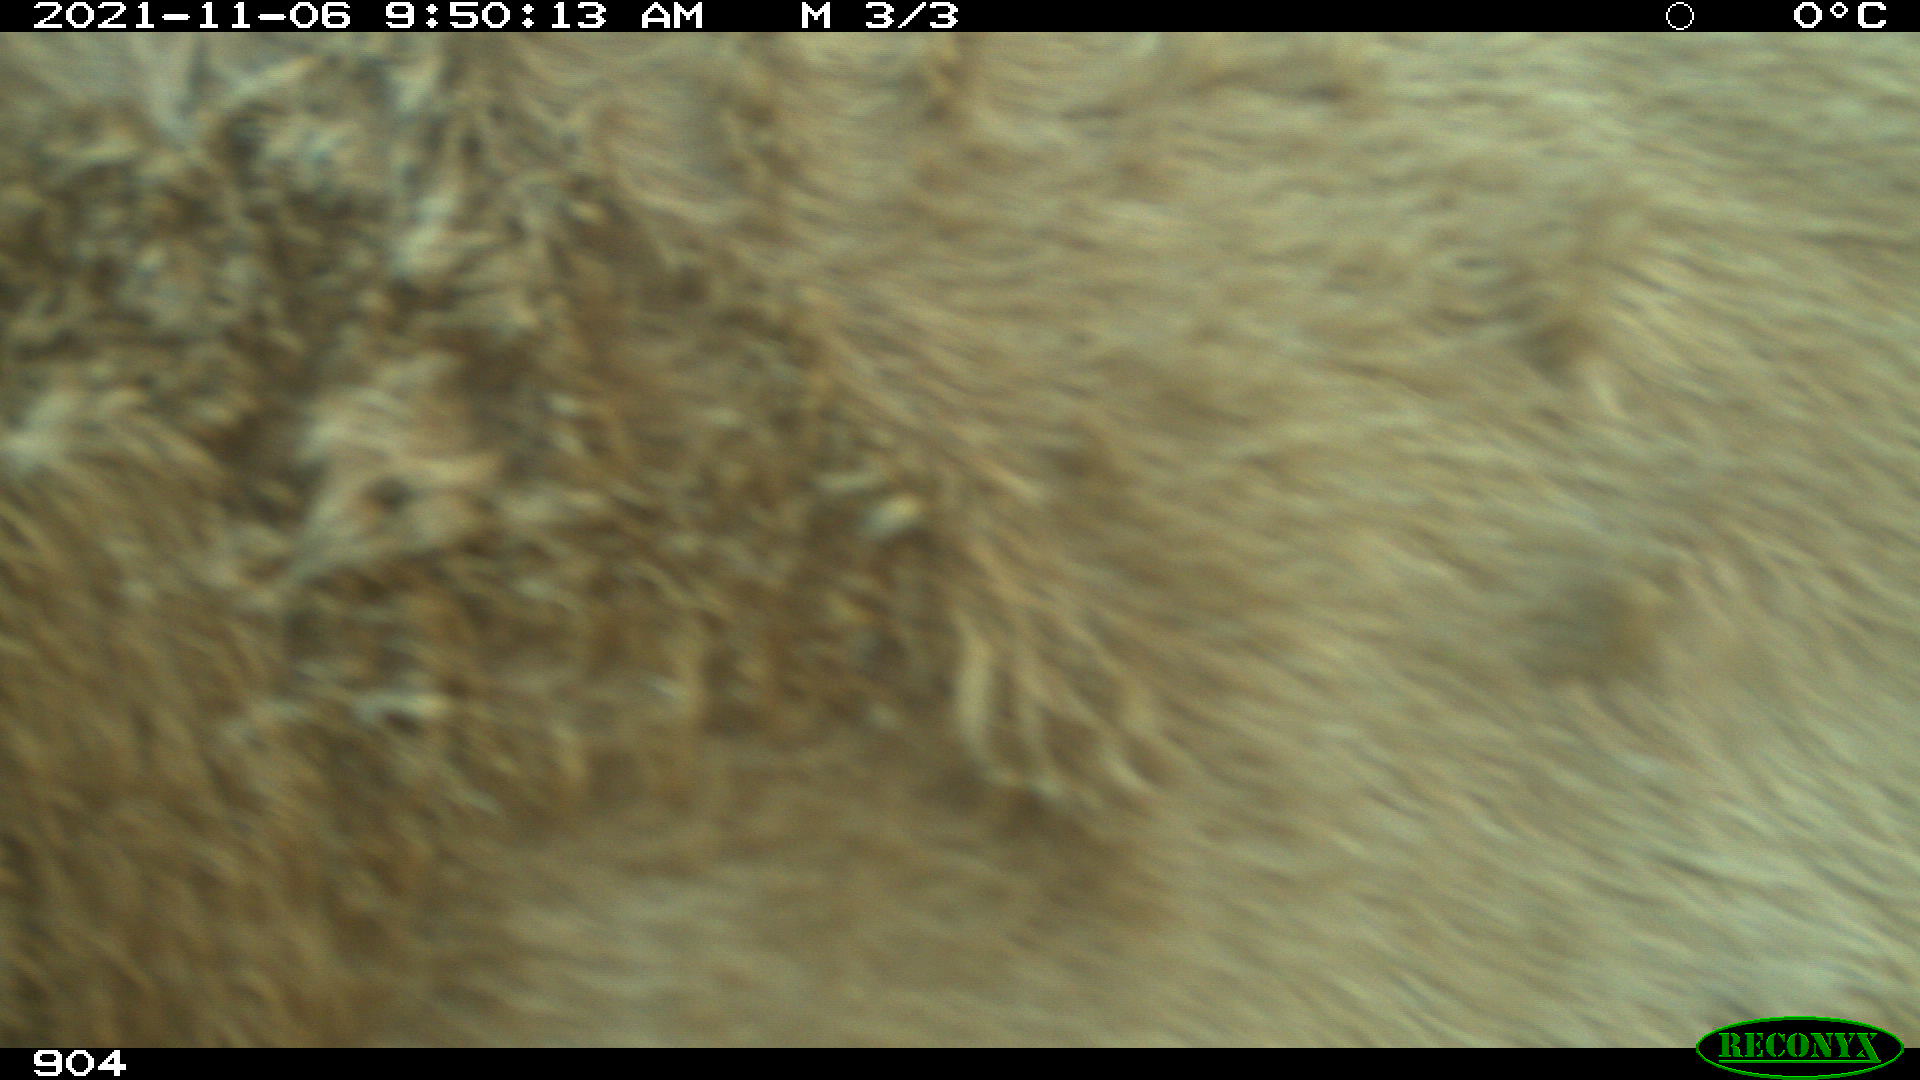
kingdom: Animalia
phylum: Chordata
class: Mammalia
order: Artiodactyla
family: Bovidae
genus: Bos
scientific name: Bos taurus
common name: Domesticated cattle
